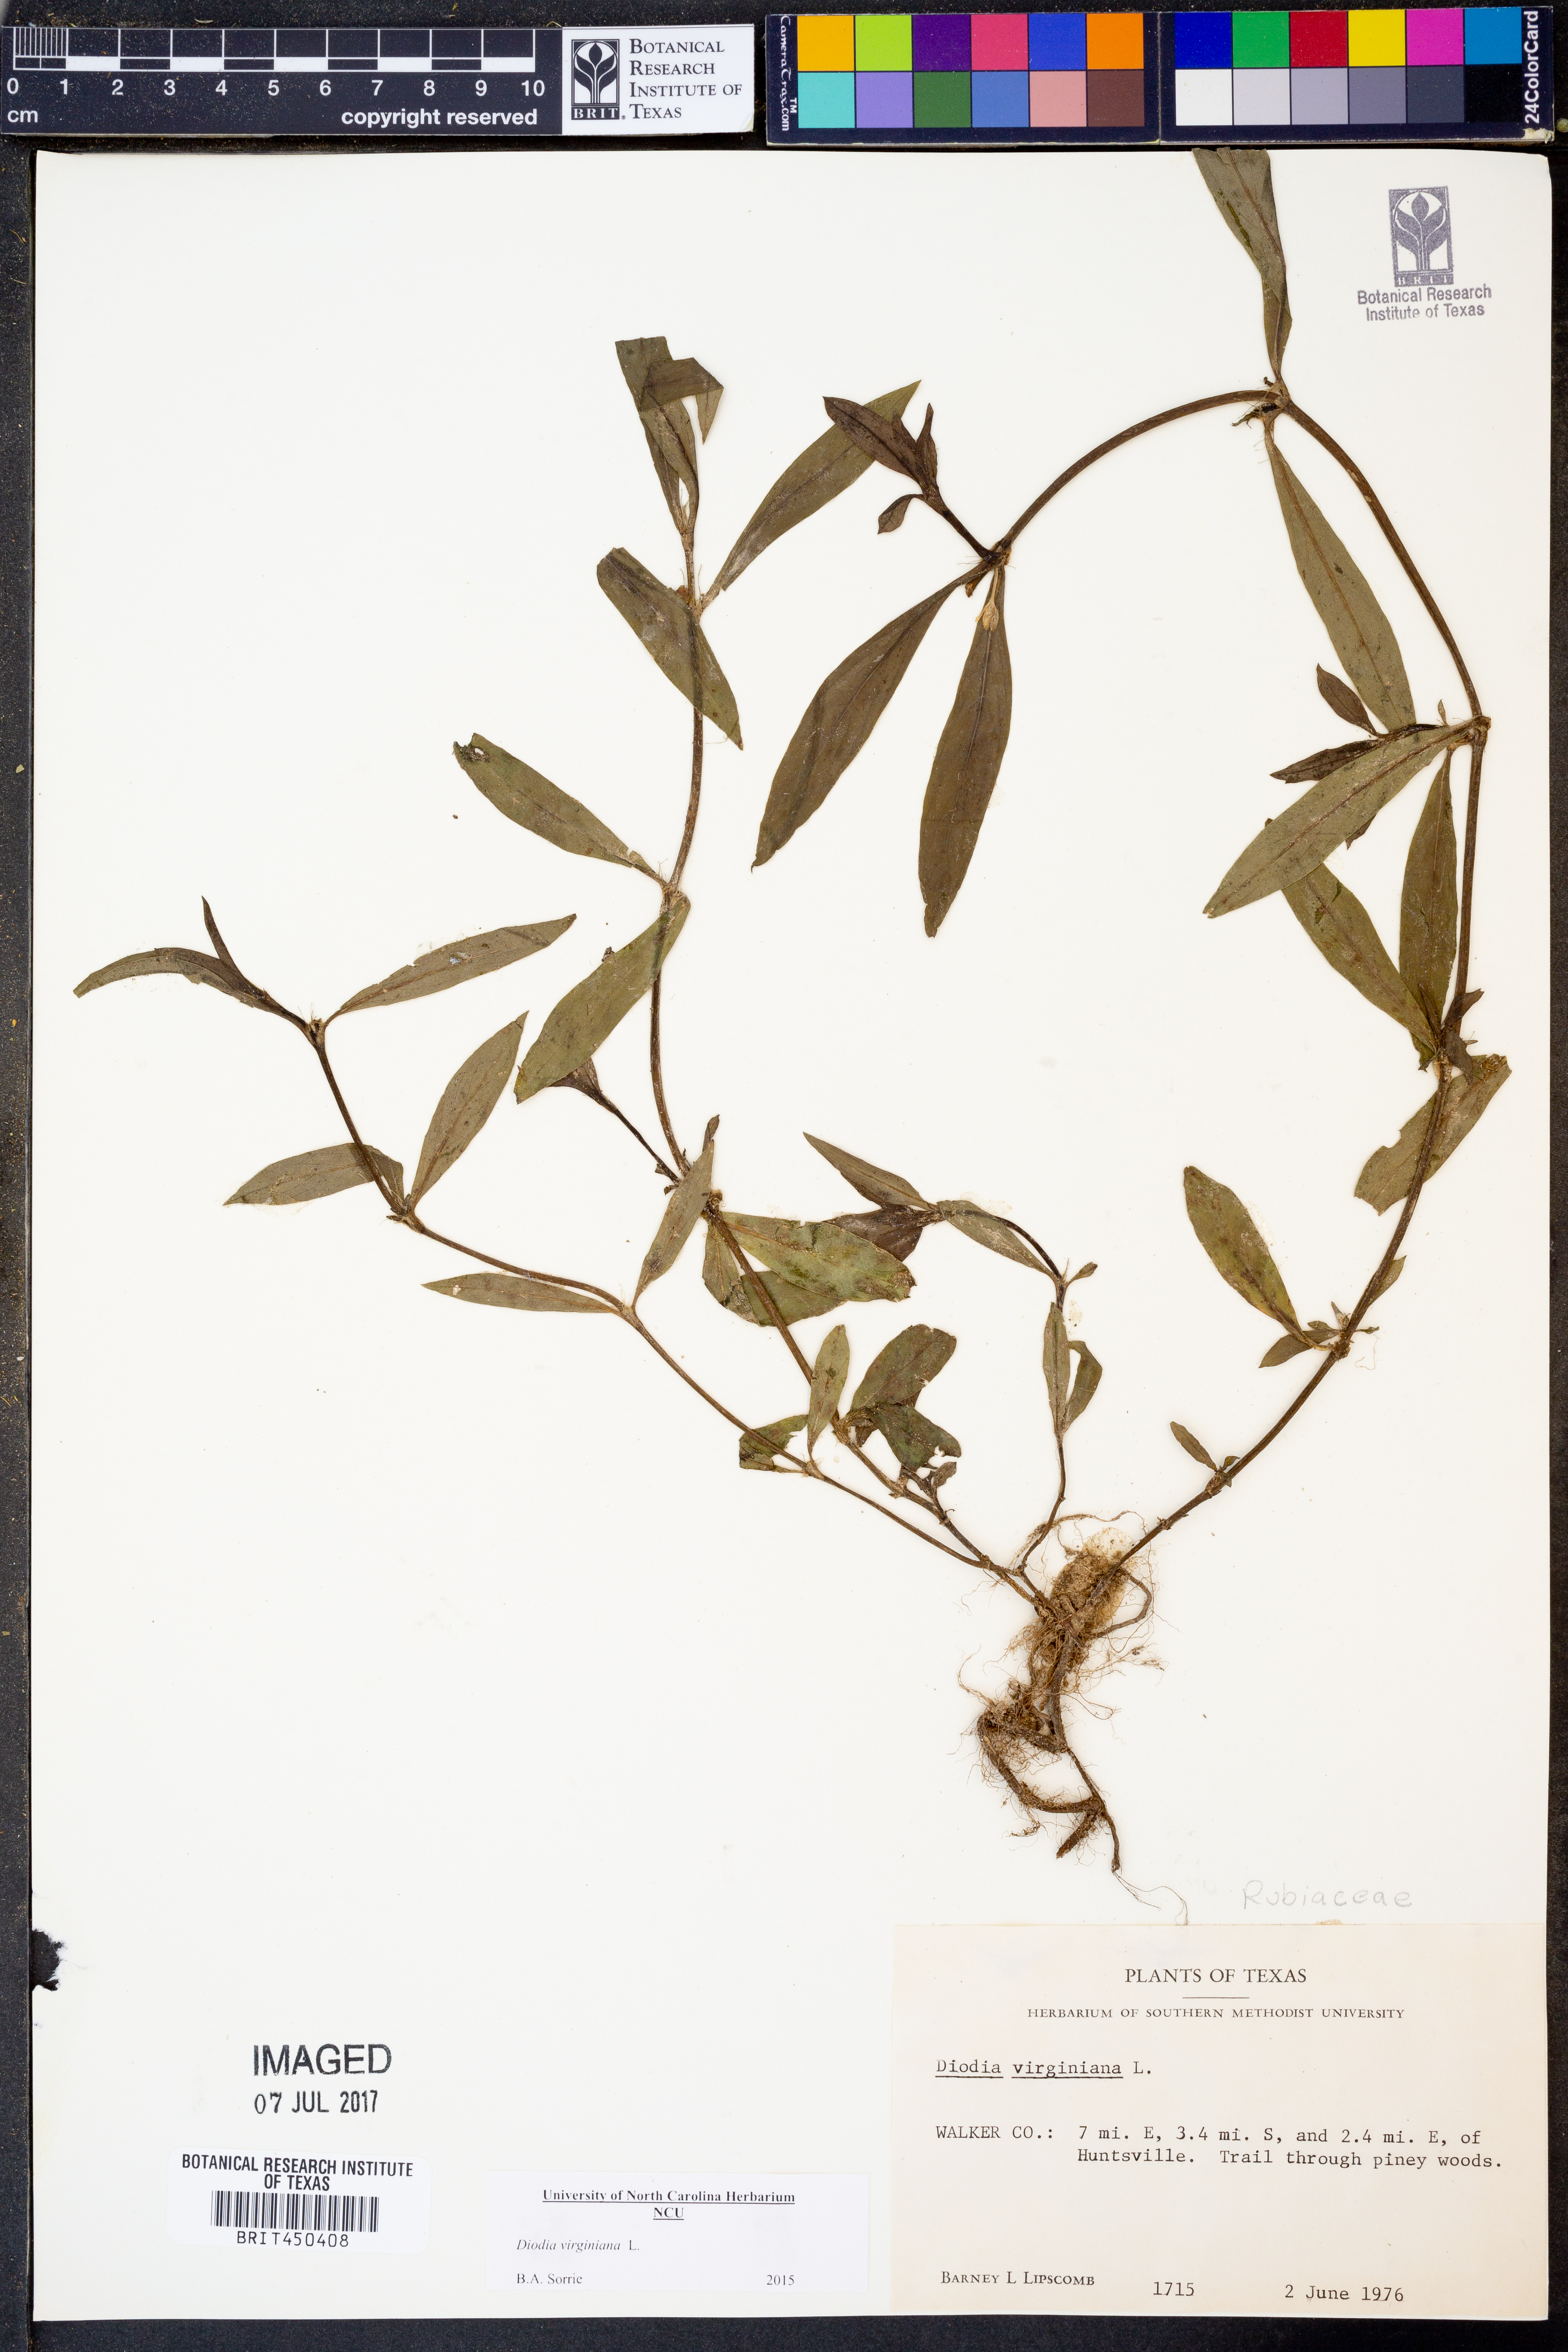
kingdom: Plantae
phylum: Tracheophyta
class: Magnoliopsida
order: Gentianales
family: Rubiaceae
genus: Diodia
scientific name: Diodia virginiana
